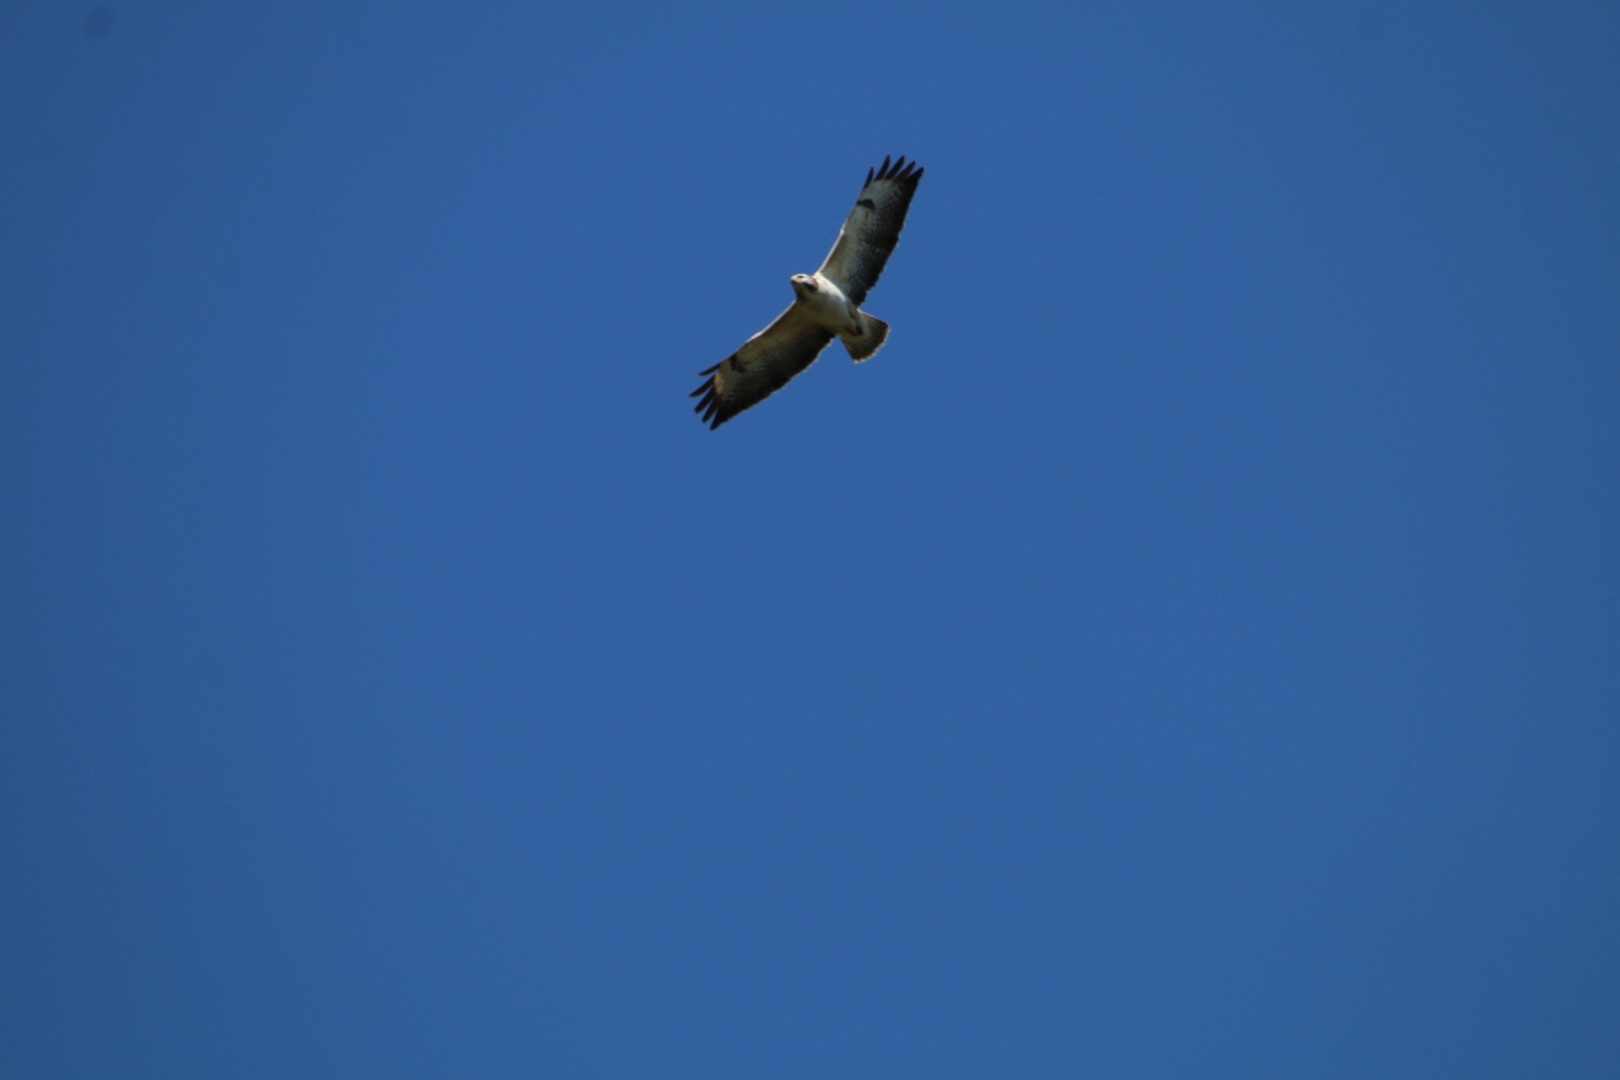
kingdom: Animalia
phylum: Chordata
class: Aves
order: Accipitriformes
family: Accipitridae
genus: Buteo
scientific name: Buteo buteo
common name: Musvåge
